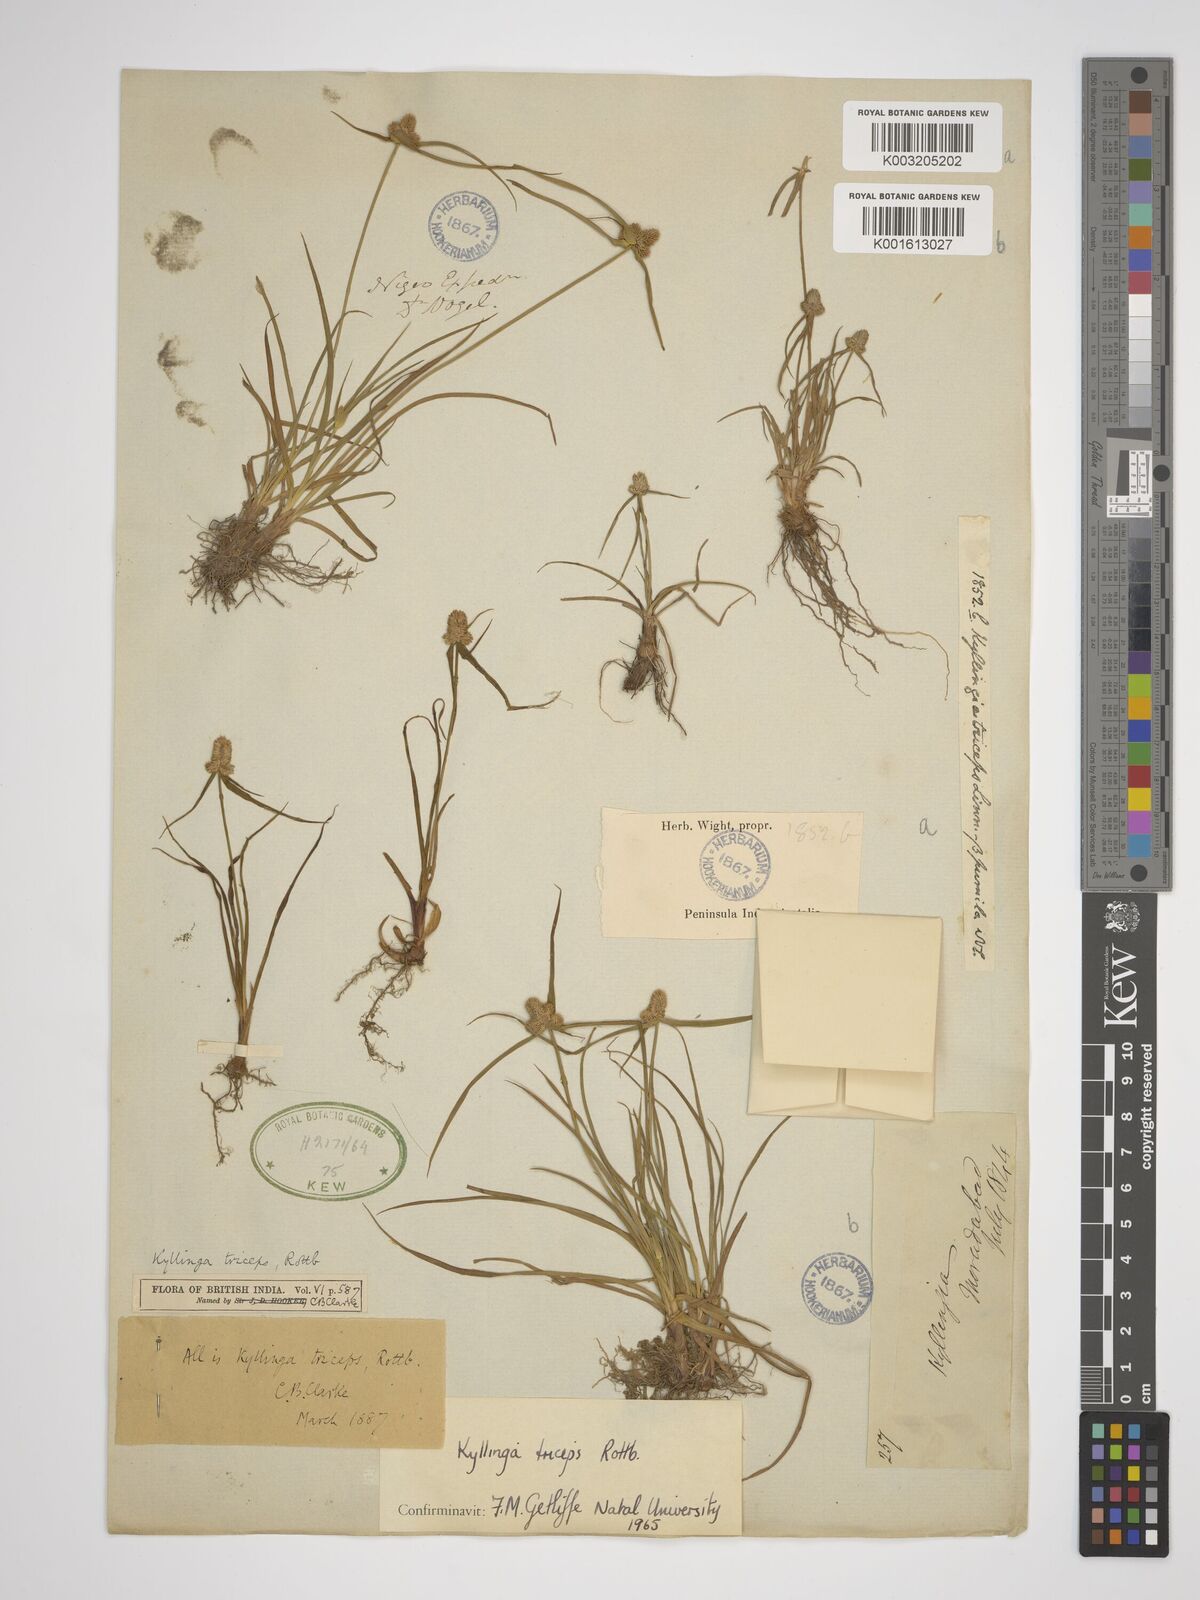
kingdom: Plantae
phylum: Tracheophyta
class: Liliopsida
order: Poales
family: Cyperaceae
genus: Cyperus
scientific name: Cyperus dubius
